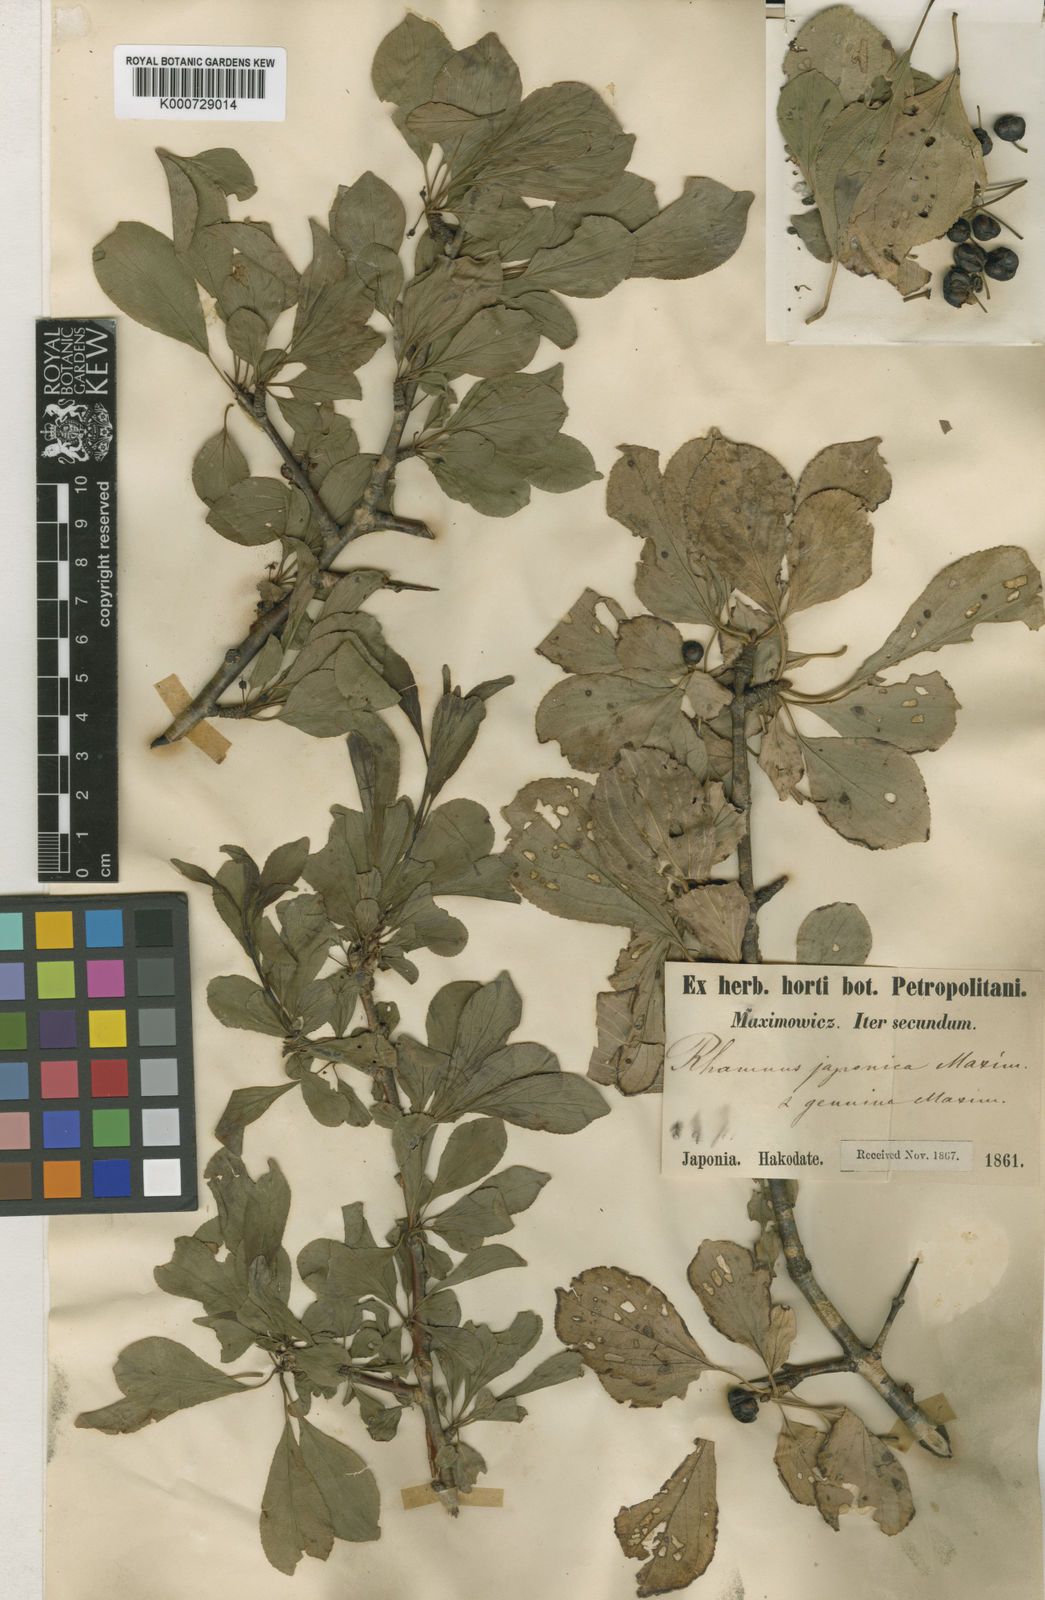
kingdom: Plantae
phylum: Tracheophyta
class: Magnoliopsida
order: Rosales
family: Rhamnaceae
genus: Rhamnus
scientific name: Rhamnus japonica
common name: Japanese buckthorn
